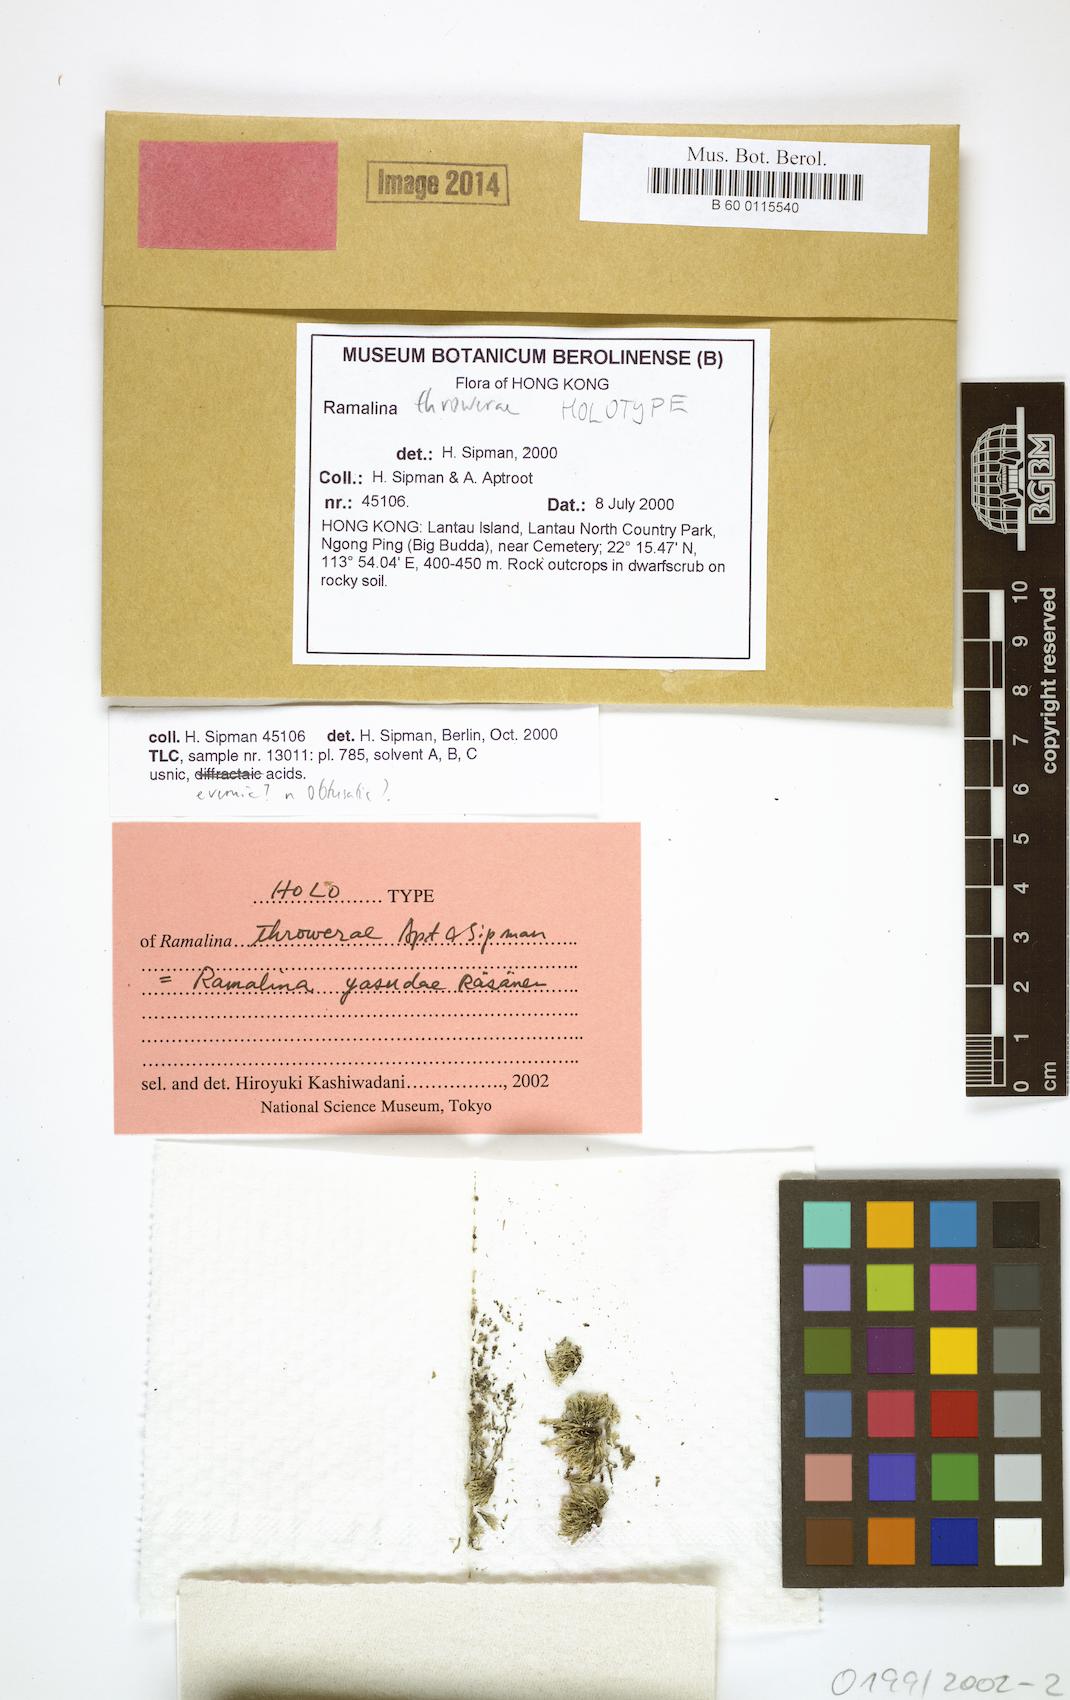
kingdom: Fungi
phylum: Ascomycota
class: Lecanoromycetes
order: Lecanorales
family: Ramalinaceae
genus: Ramalina
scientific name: Ramalina throwerae
